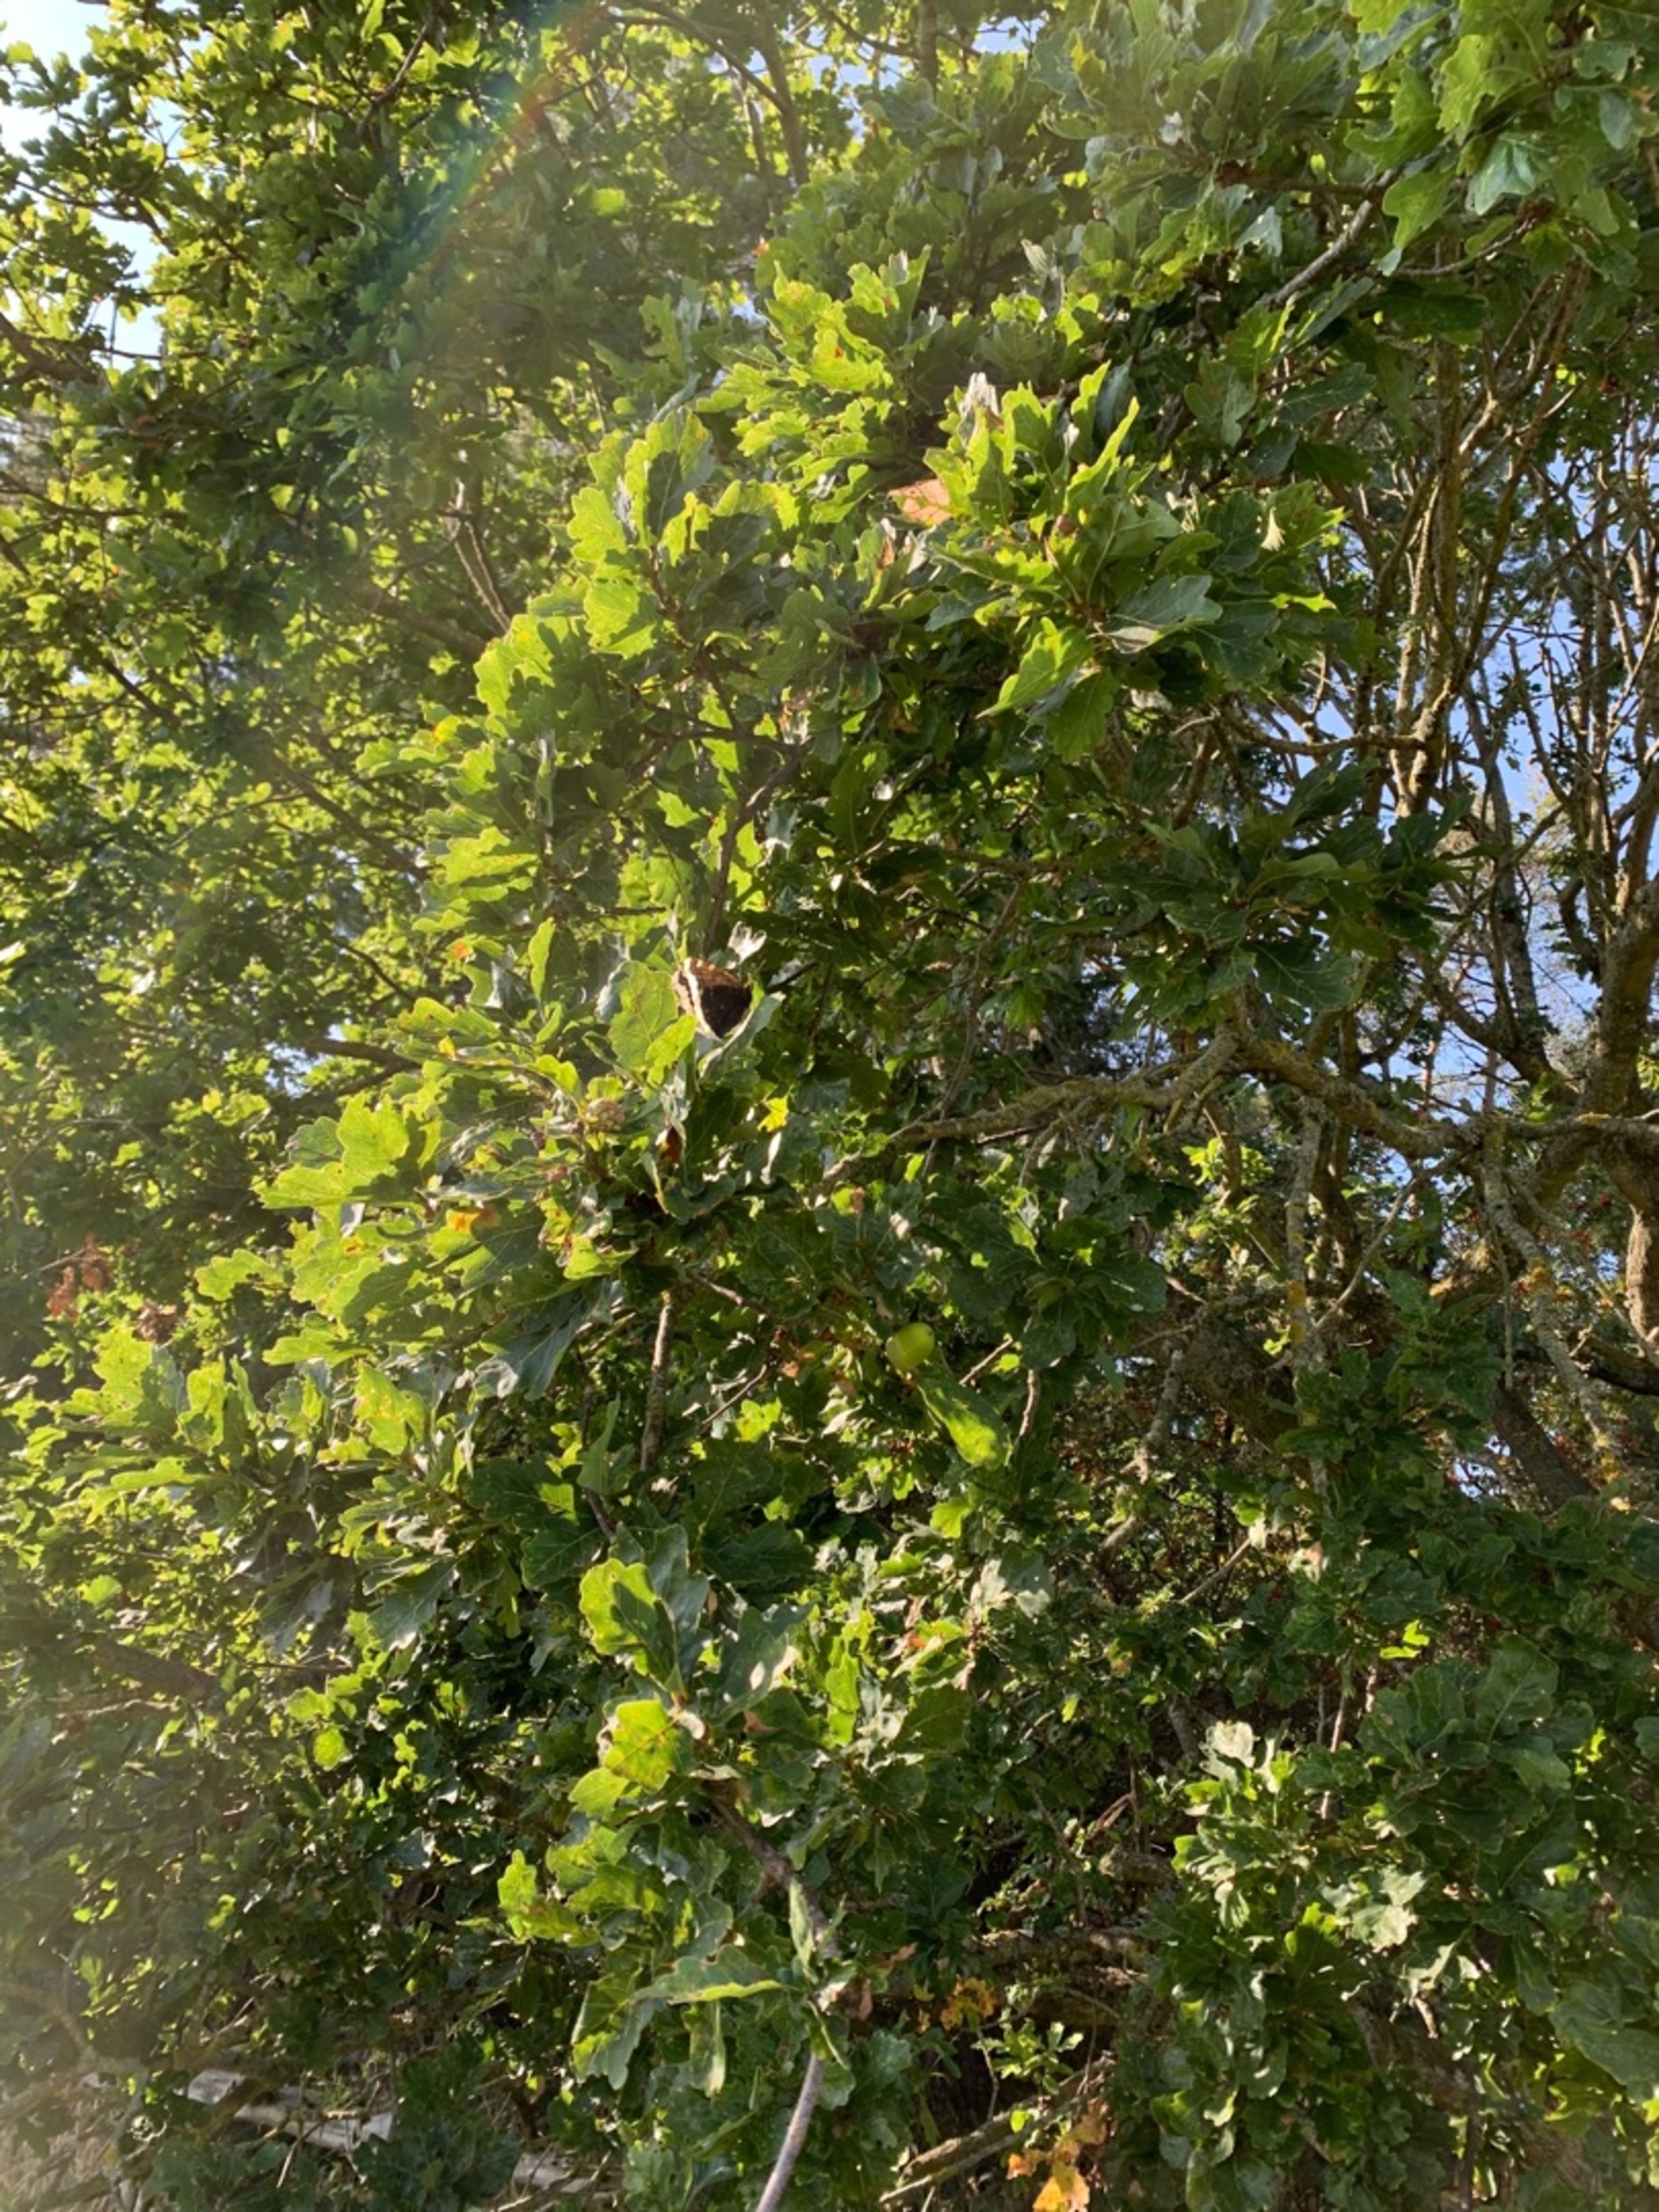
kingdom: Animalia
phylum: Arthropoda
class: Insecta
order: Lepidoptera
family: Nymphalidae
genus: Nymphalis
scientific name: Nymphalis antiopa
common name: Sørgekåbe
